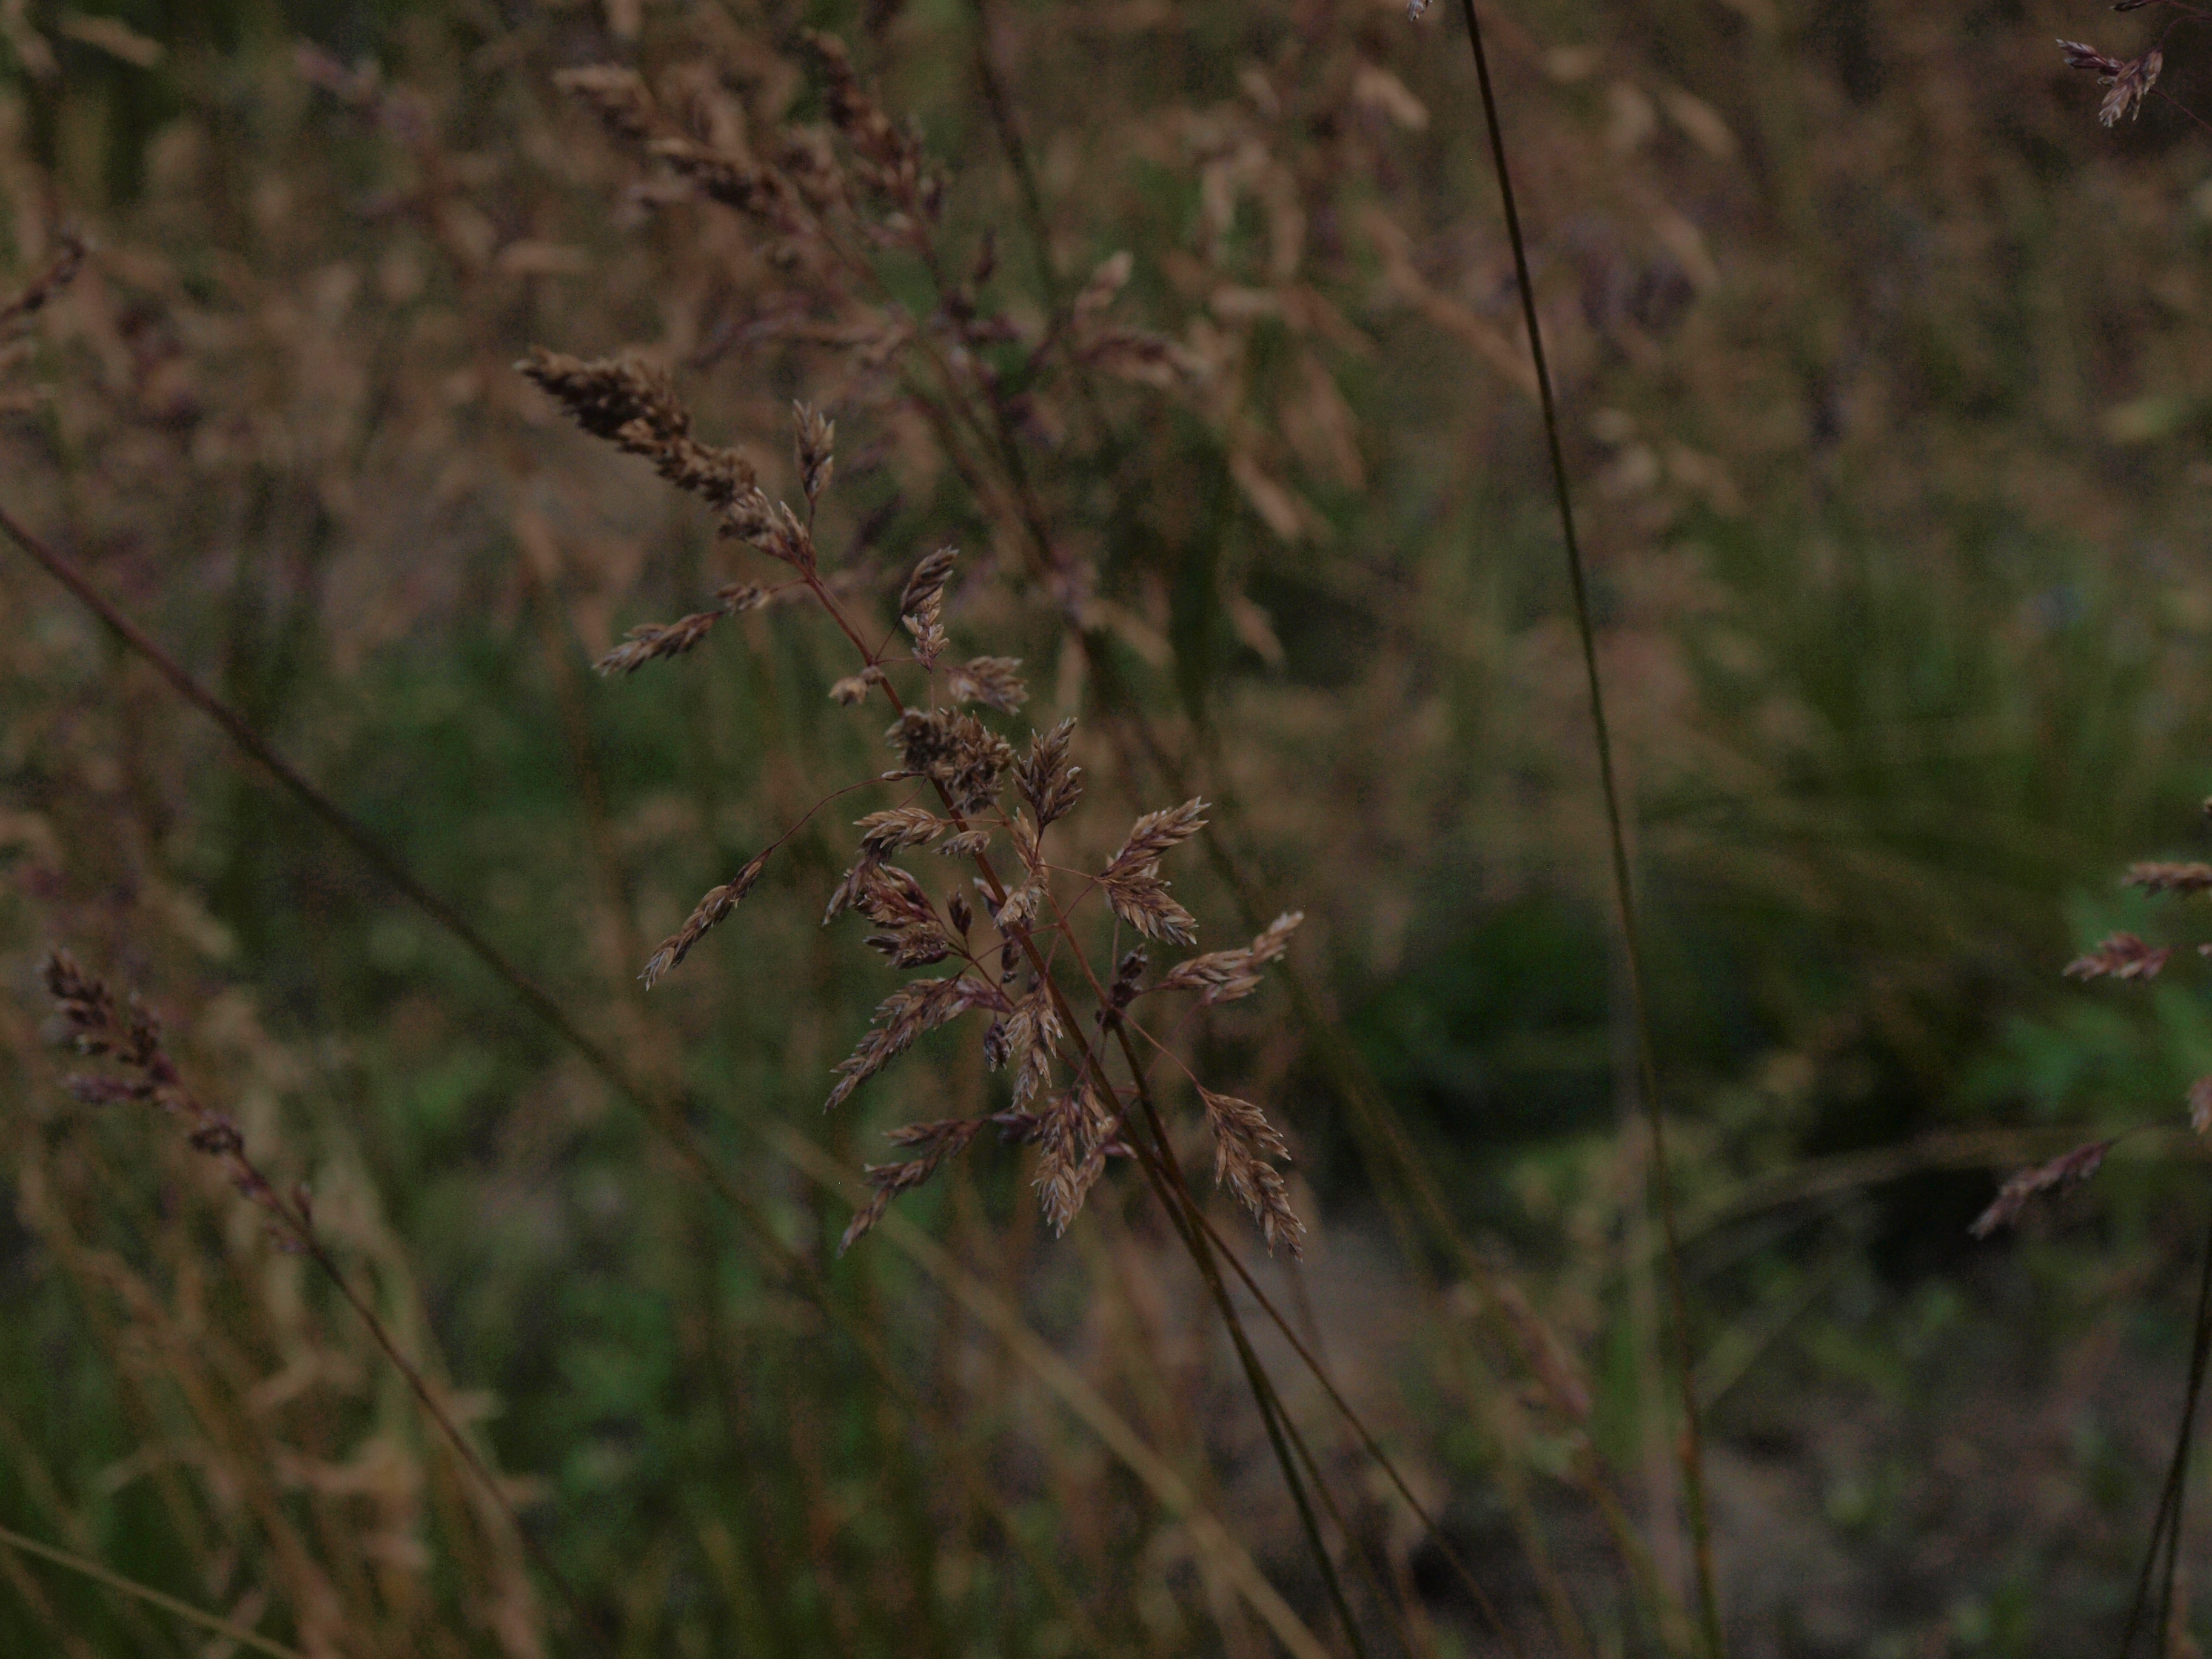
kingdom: Plantae
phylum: Tracheophyta
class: Liliopsida
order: Poales
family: Poaceae
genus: Poa
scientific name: Poa pratensis
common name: Kentucky bluegrass
